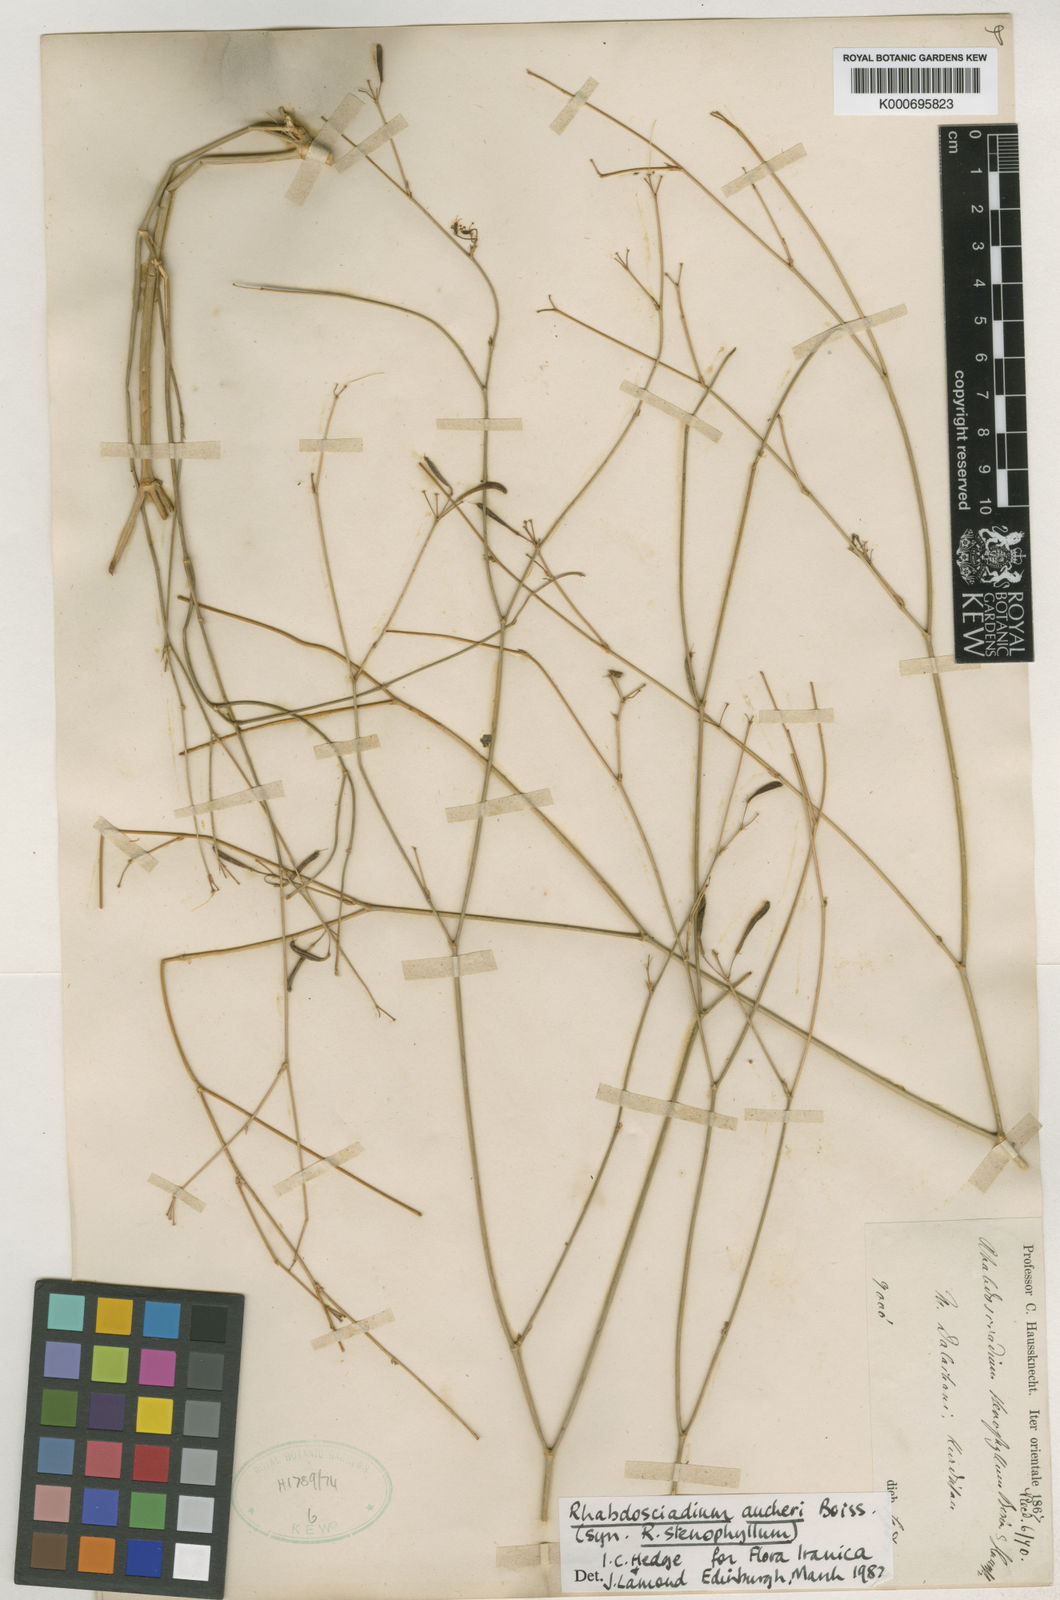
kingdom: Plantae
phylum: Tracheophyta
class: Magnoliopsida
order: Apiales
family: Apiaceae
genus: Rhabdosciadium
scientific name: Rhabdosciadium aucheri
